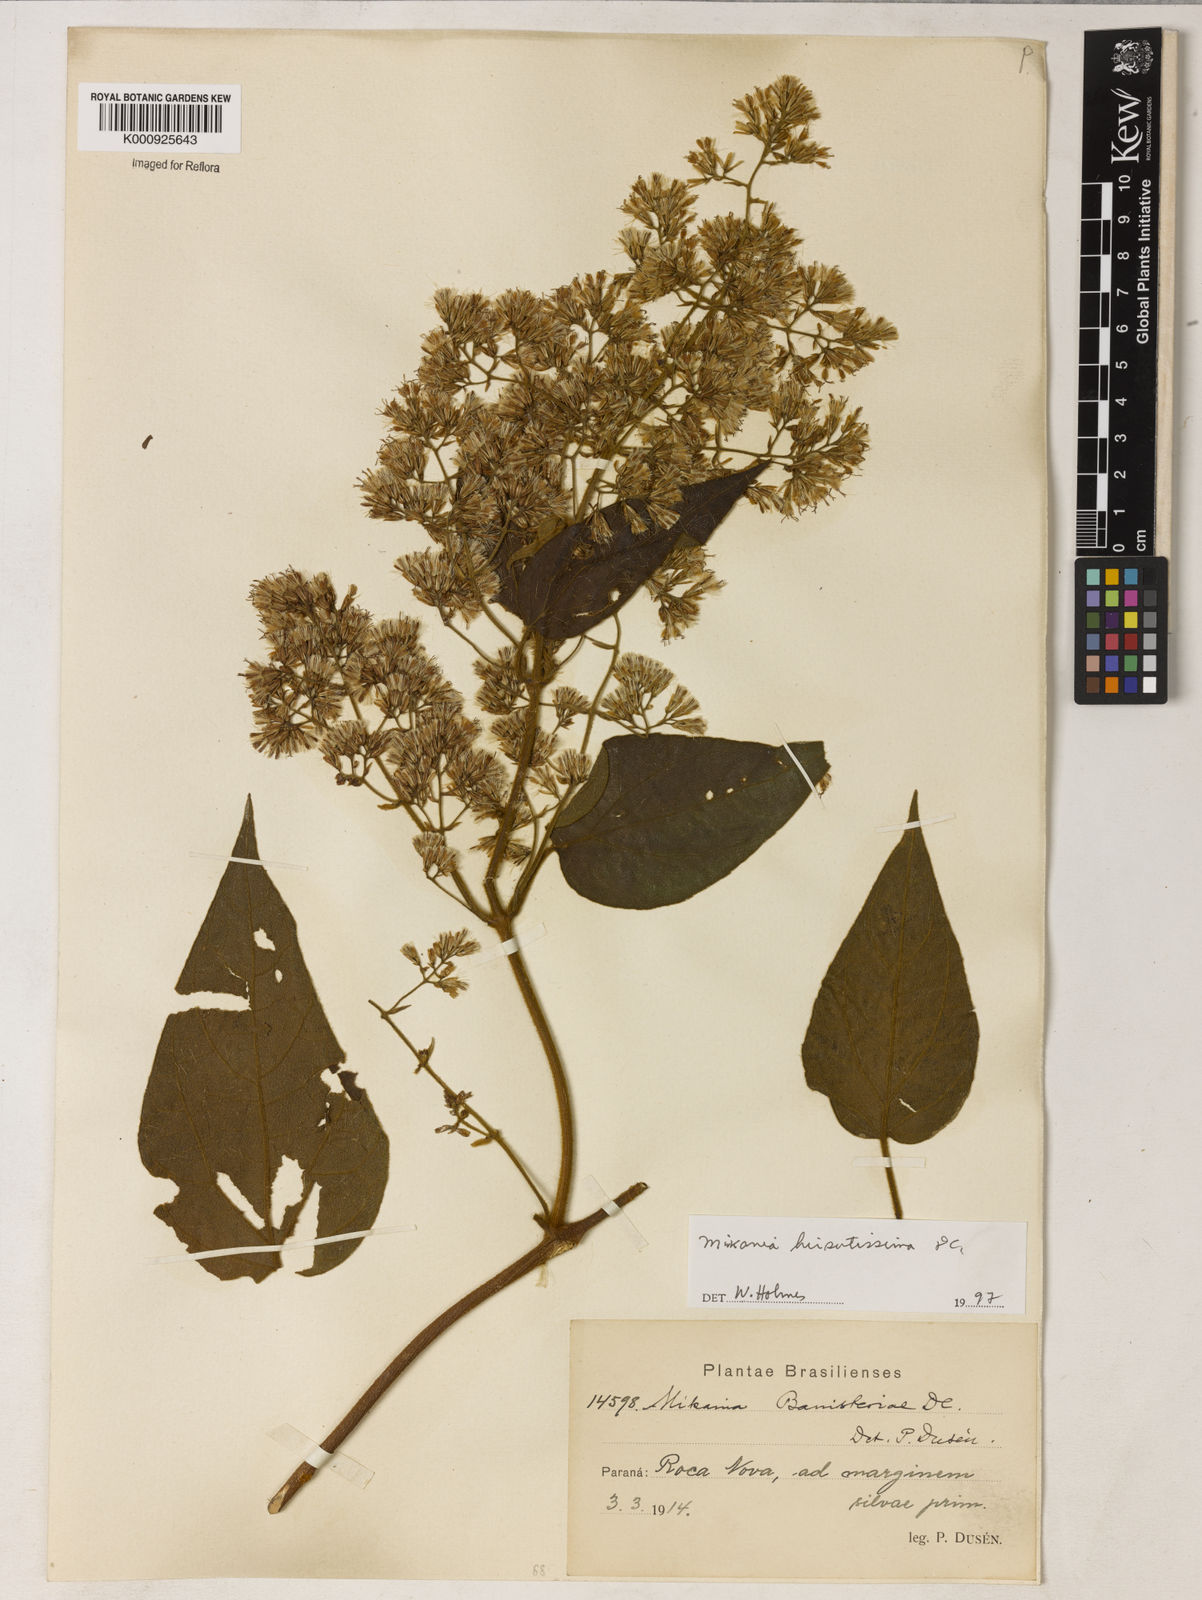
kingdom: Plantae
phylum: Tracheophyta
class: Magnoliopsida
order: Asterales
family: Asteraceae
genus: Mikania
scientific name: Mikania lasiandrae
